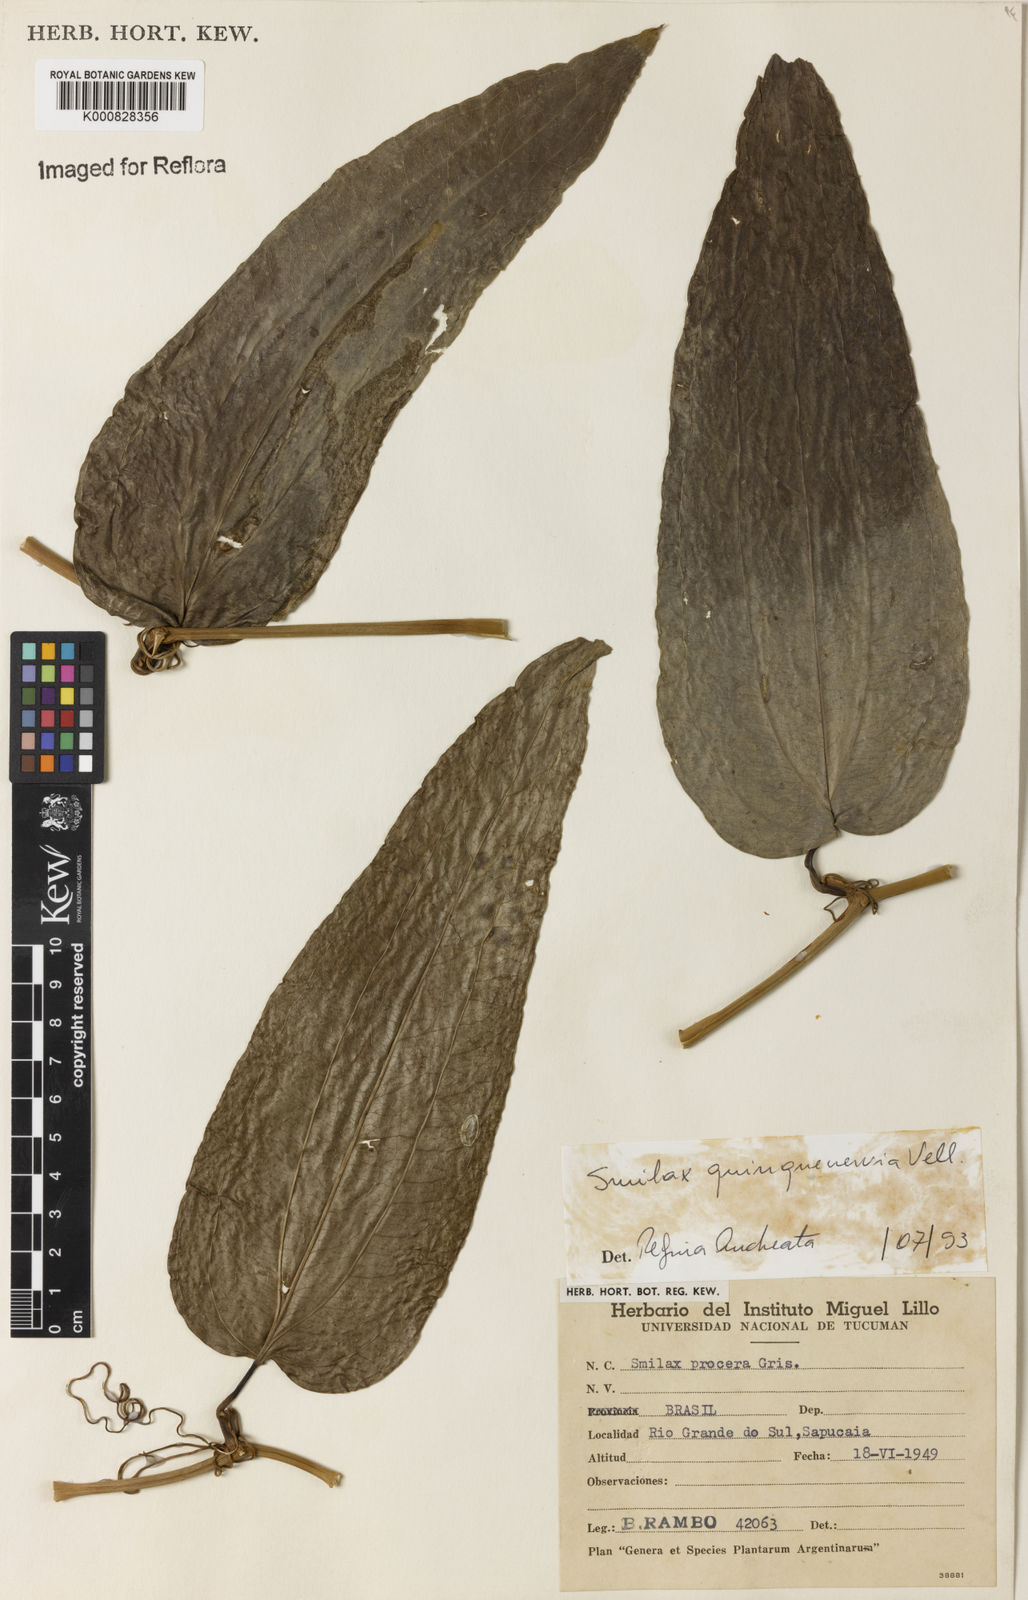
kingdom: Plantae
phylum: Tracheophyta
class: Liliopsida
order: Liliales
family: Smilacaceae
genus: Smilax
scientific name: Smilax quinquenervia
